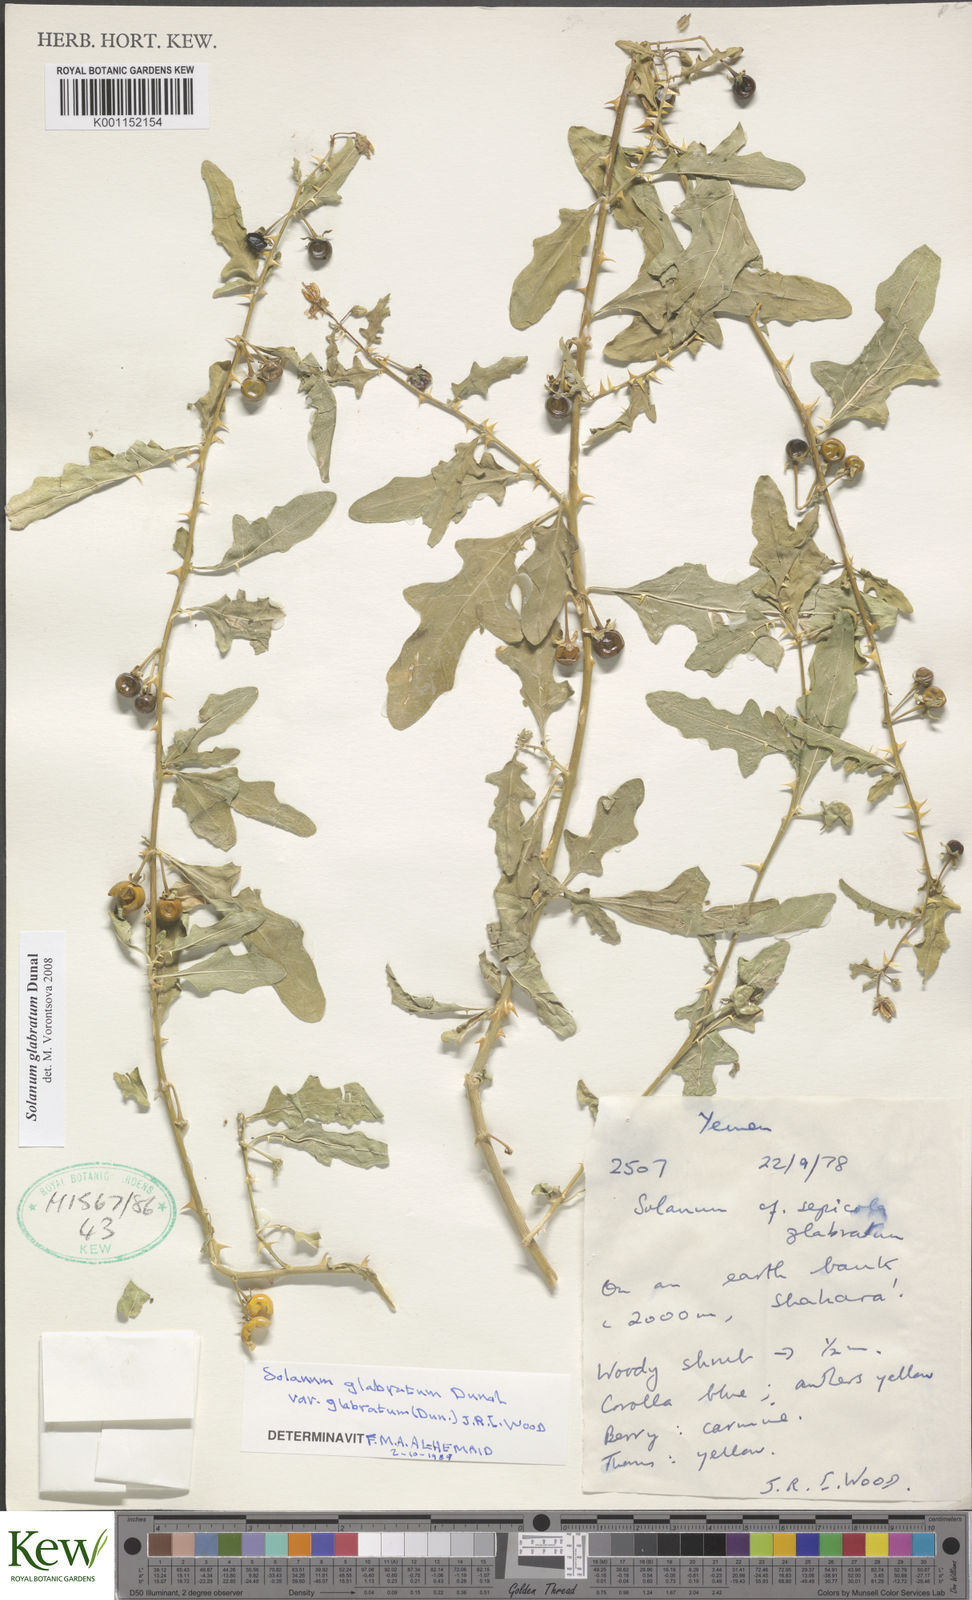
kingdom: Plantae
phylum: Tracheophyta
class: Magnoliopsida
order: Solanales
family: Solanaceae
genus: Solanum
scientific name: Solanum glabratum
